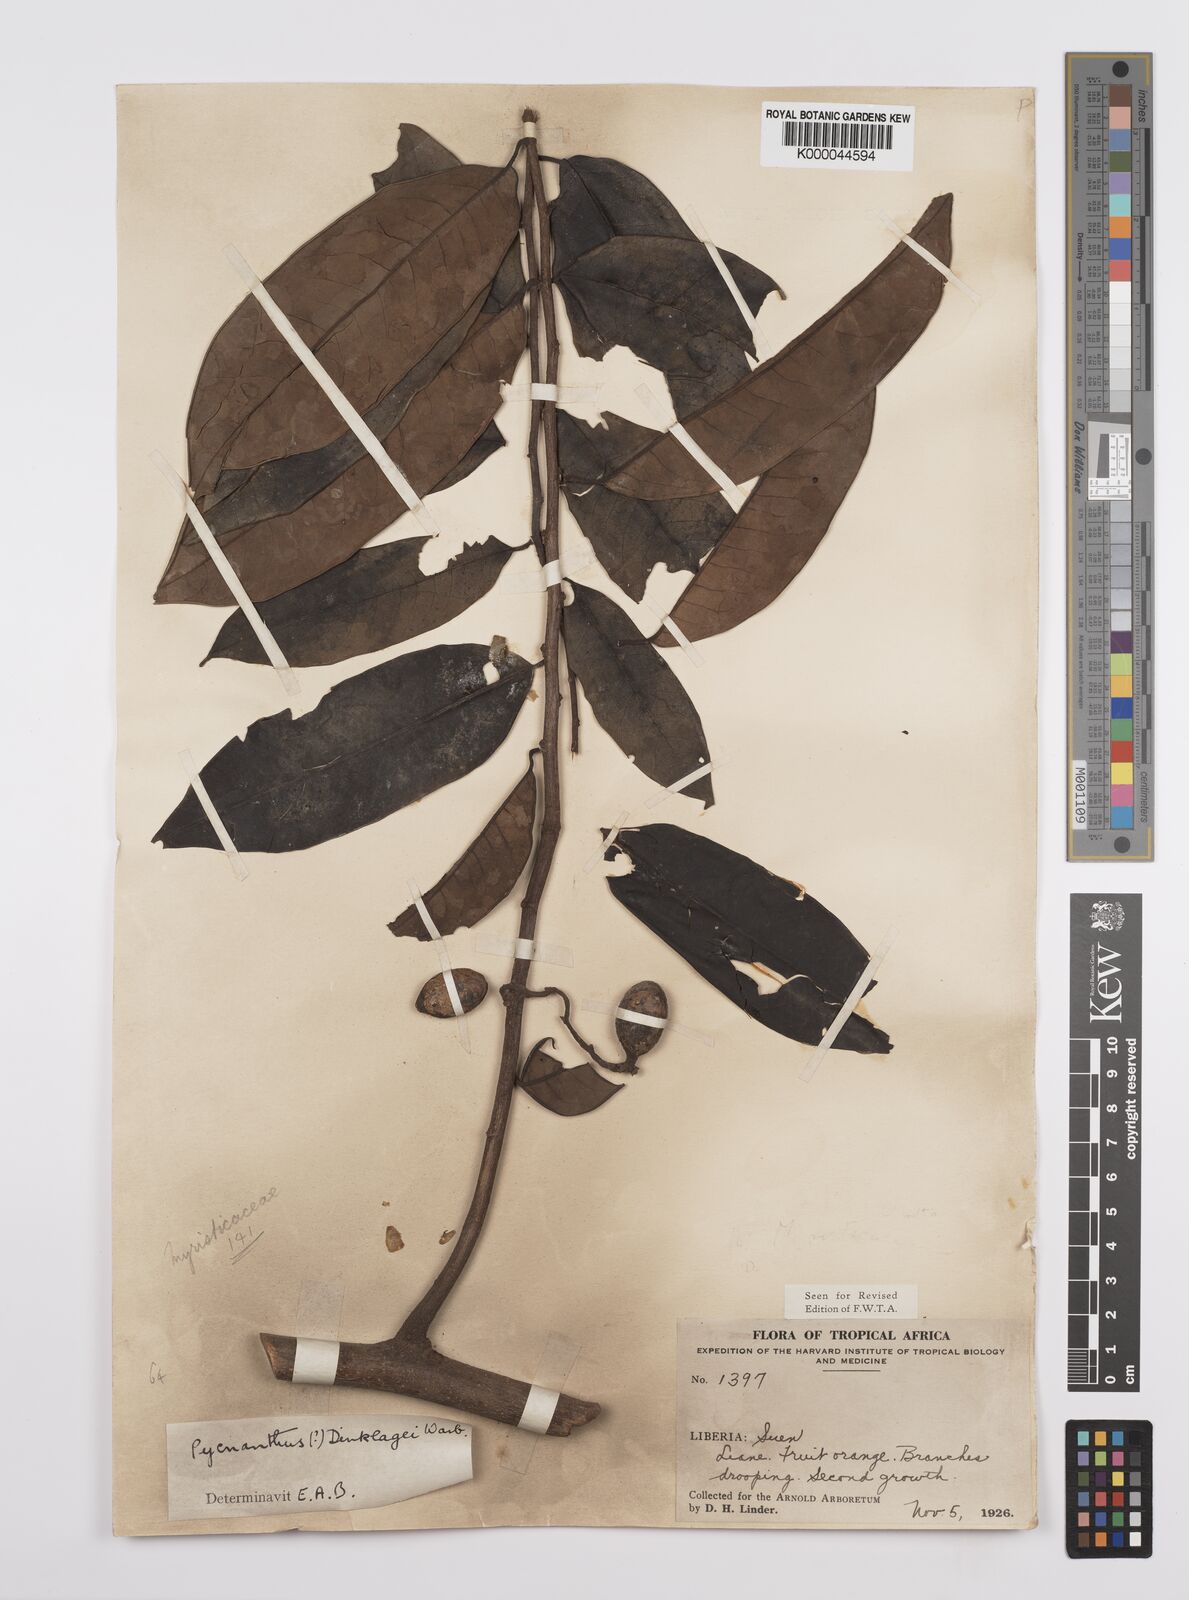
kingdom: Plantae
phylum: Tracheophyta
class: Magnoliopsida
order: Magnoliales
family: Myristicaceae
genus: Pycnanthus
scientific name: Pycnanthus dinklagei
